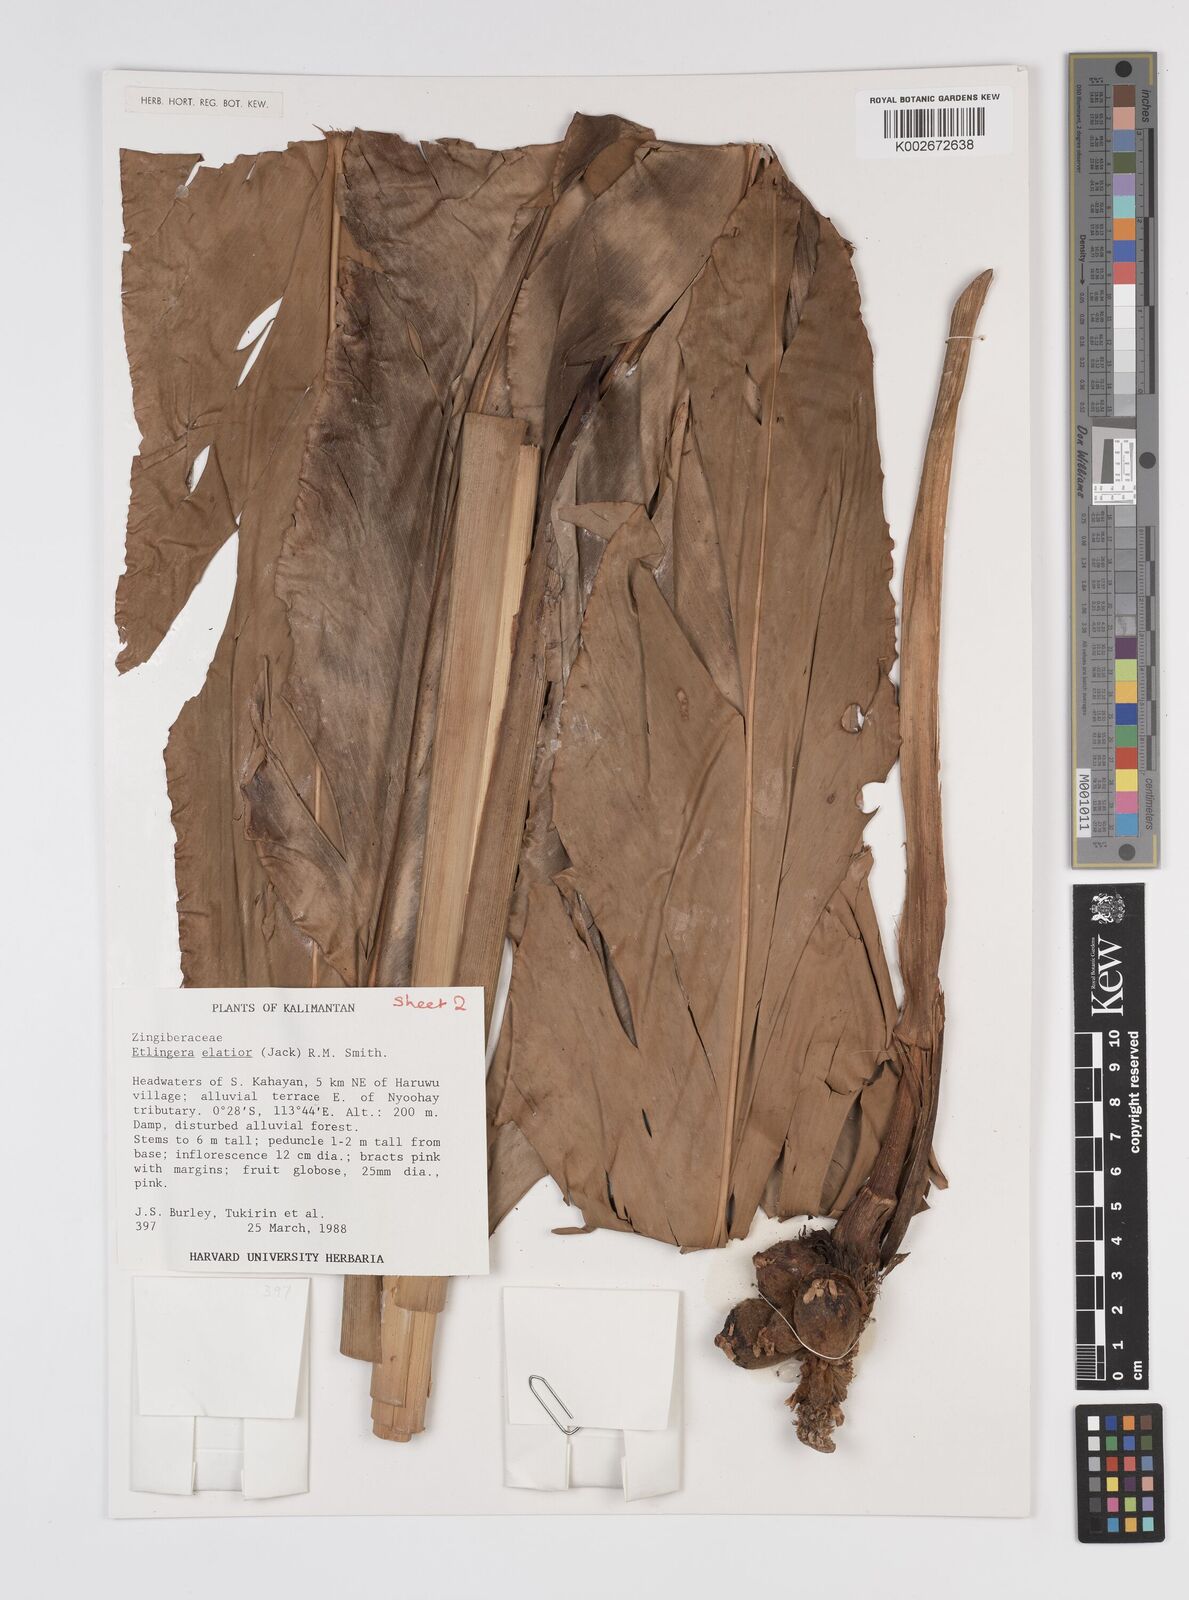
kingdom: Plantae
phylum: Tracheophyta
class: Liliopsida
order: Zingiberales
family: Zingiberaceae
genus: Etlingera
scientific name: Etlingera elatior
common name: Philippine waxflower
